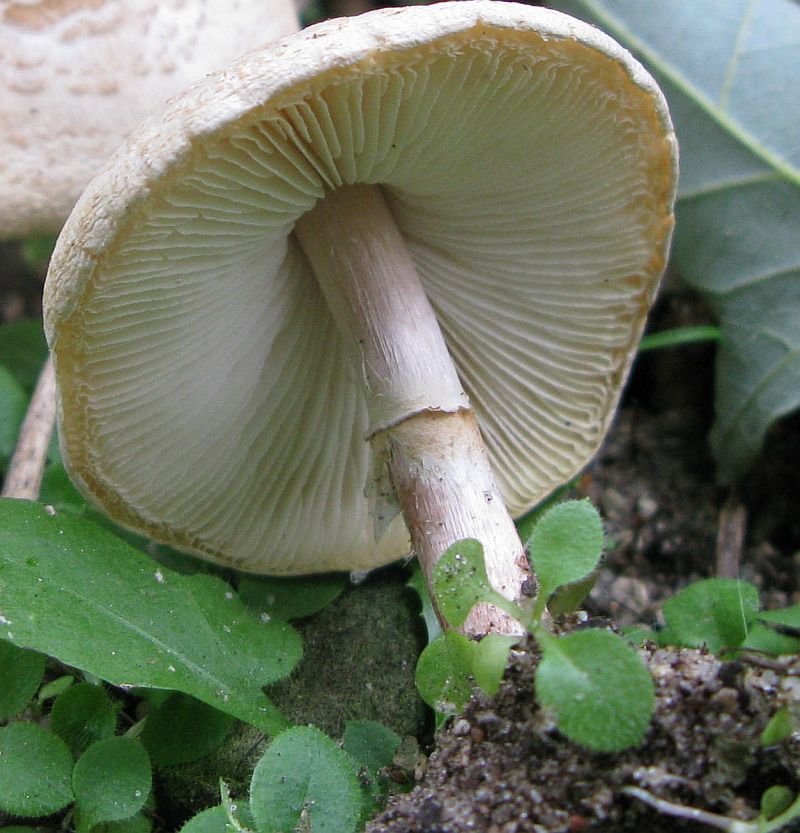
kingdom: Fungi
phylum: Basidiomycota
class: Agaricomycetes
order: Agaricales
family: Agaricaceae
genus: Lepiota
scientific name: Lepiota cristata
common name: stinkende parasolhat
